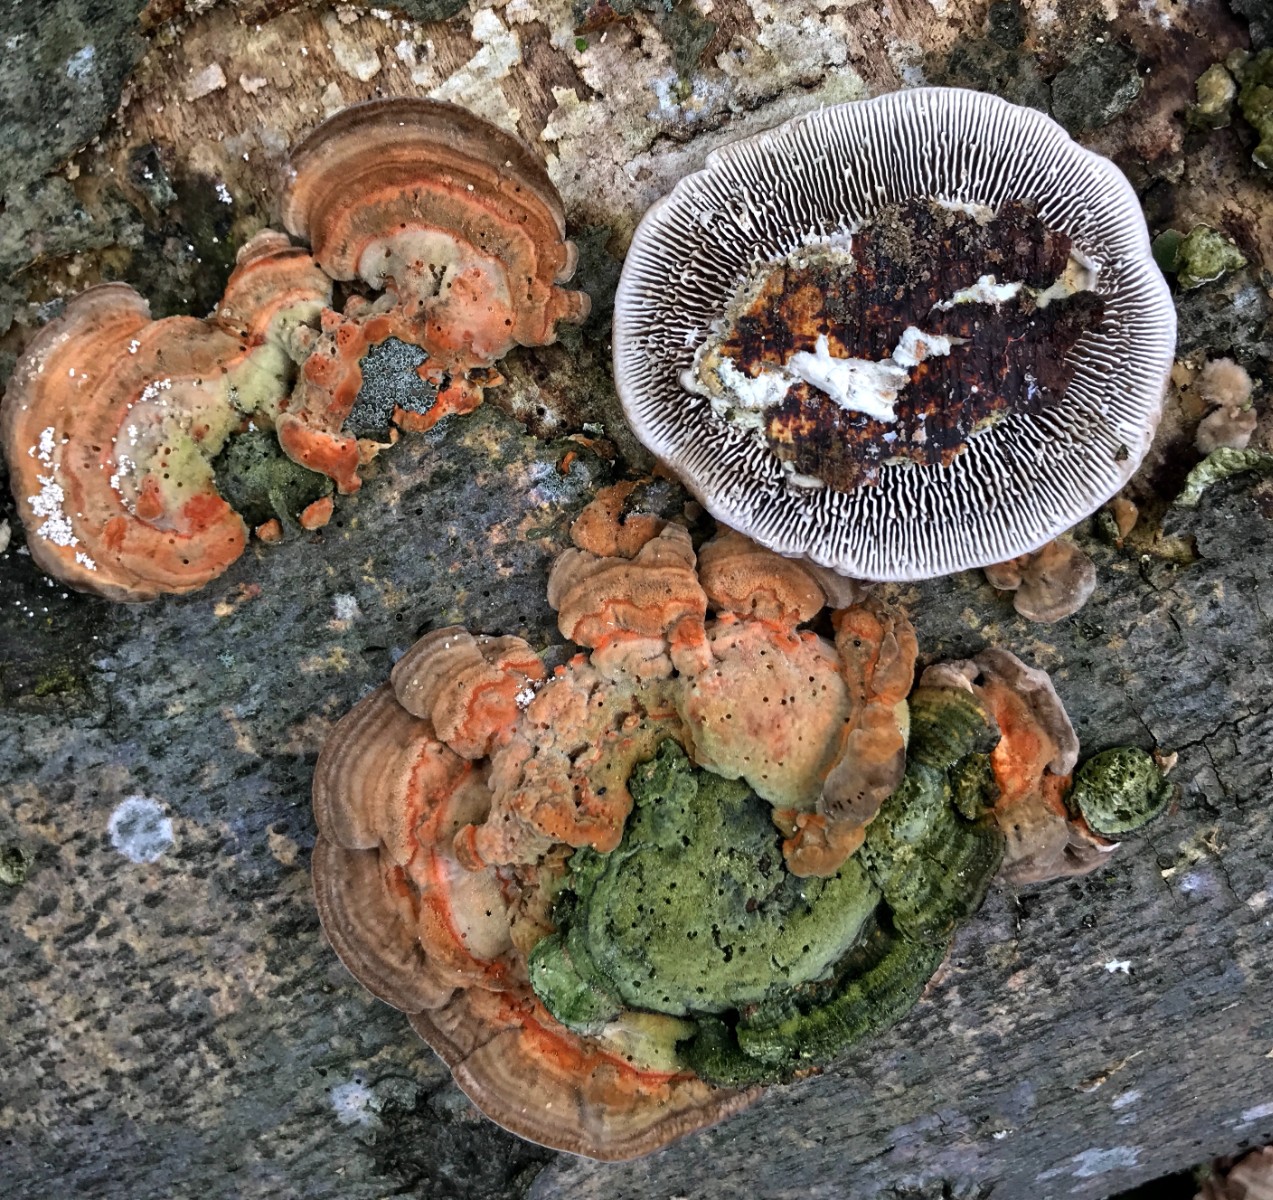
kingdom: Fungi
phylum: Basidiomycota
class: Agaricomycetes
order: Polyporales
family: Polyporaceae
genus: Lenzites
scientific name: Lenzites betulinus
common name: birke-læderporesvamp
